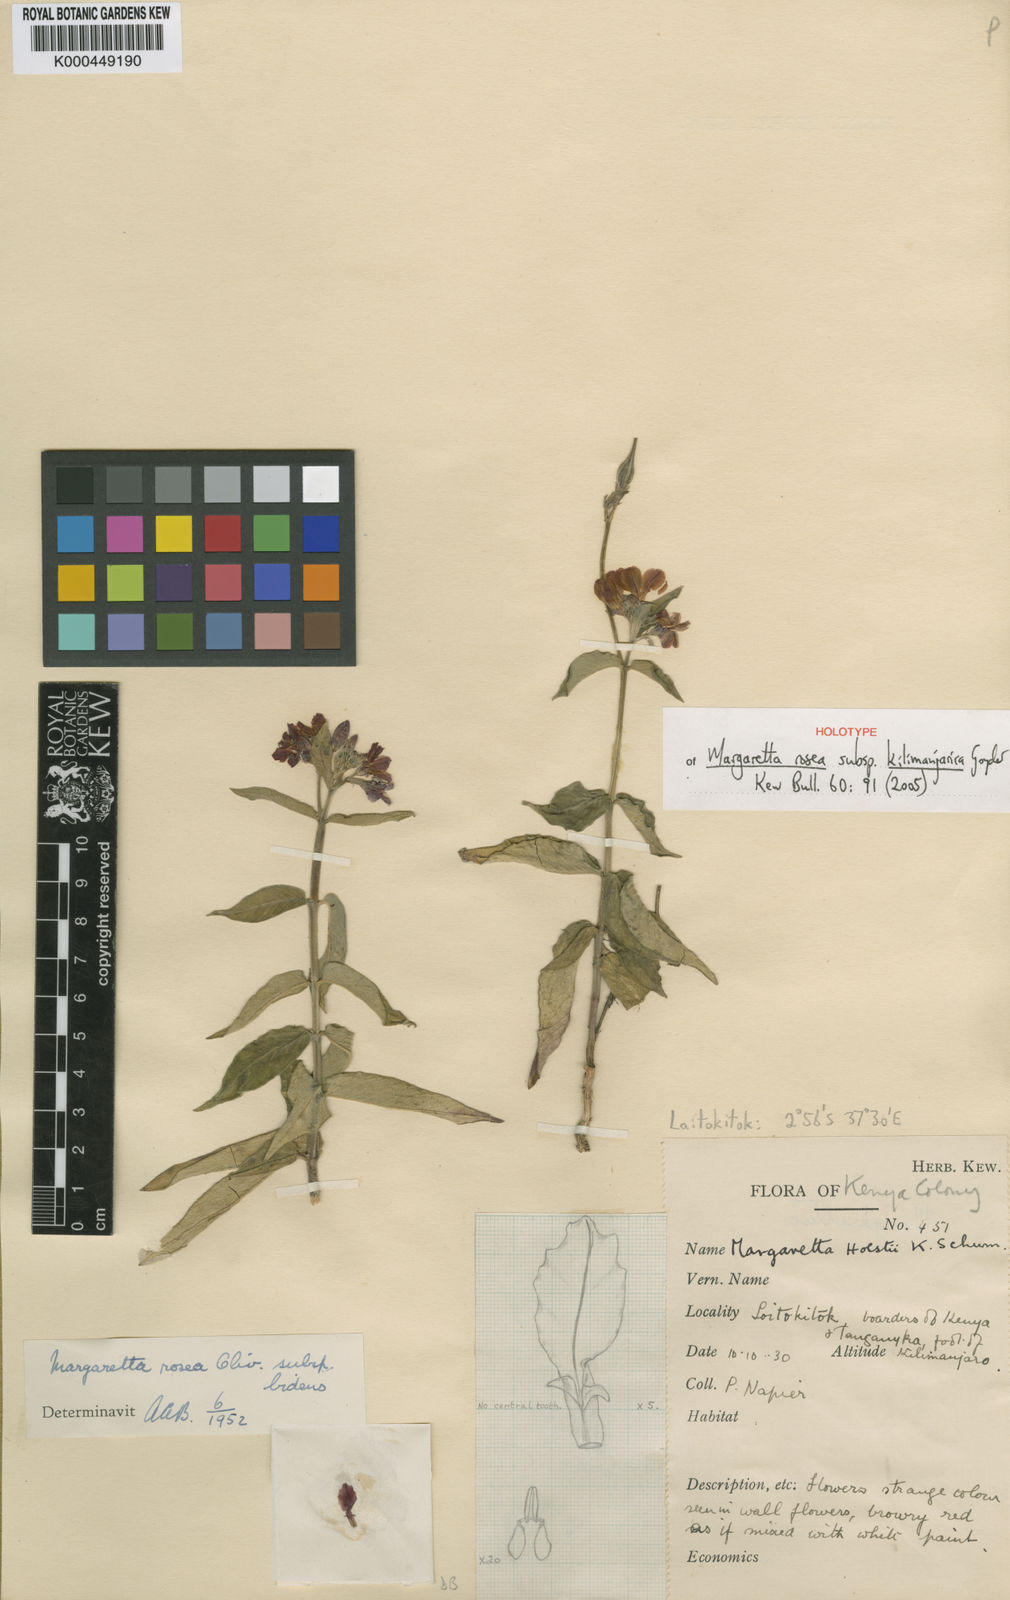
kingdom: Plantae
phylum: Tracheophyta
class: Magnoliopsida
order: Gentianales
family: Apocynaceae
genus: Margaretta
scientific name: Margaretta rosea
